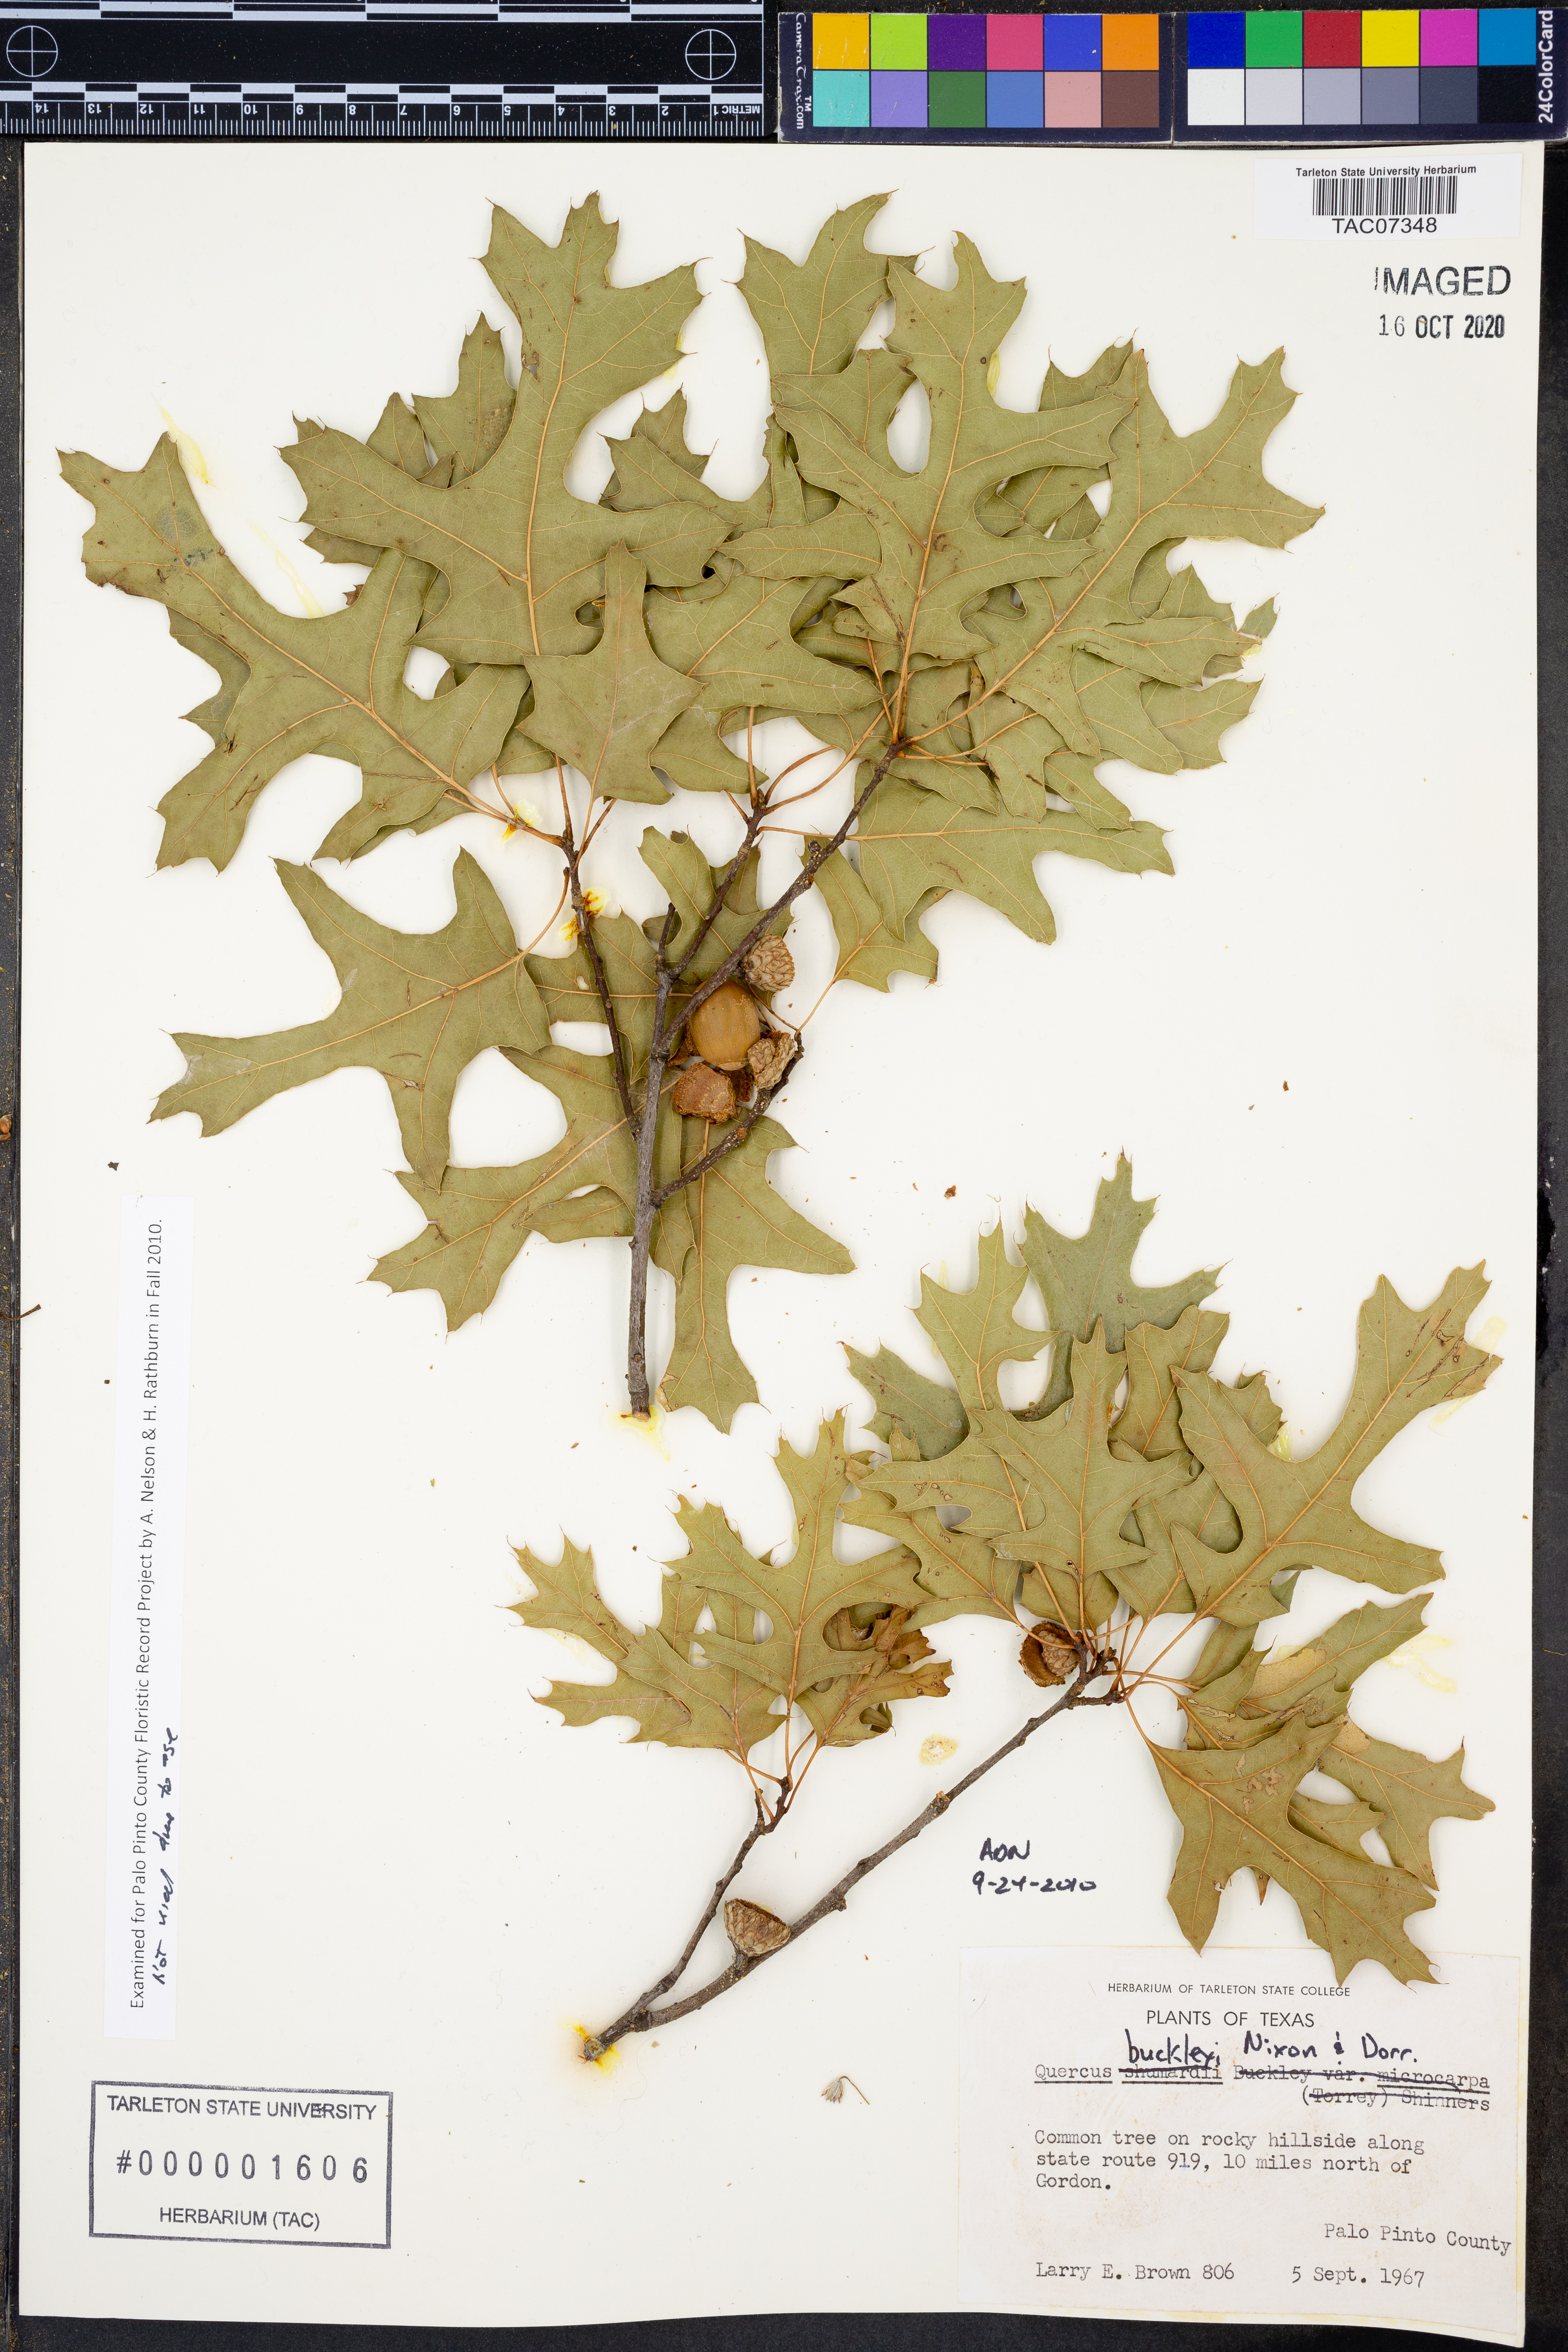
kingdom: Plantae
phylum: Tracheophyta
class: Magnoliopsida
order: Fagales
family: Fagaceae
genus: Quercus
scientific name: Quercus buckleyi
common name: Buckley oak
